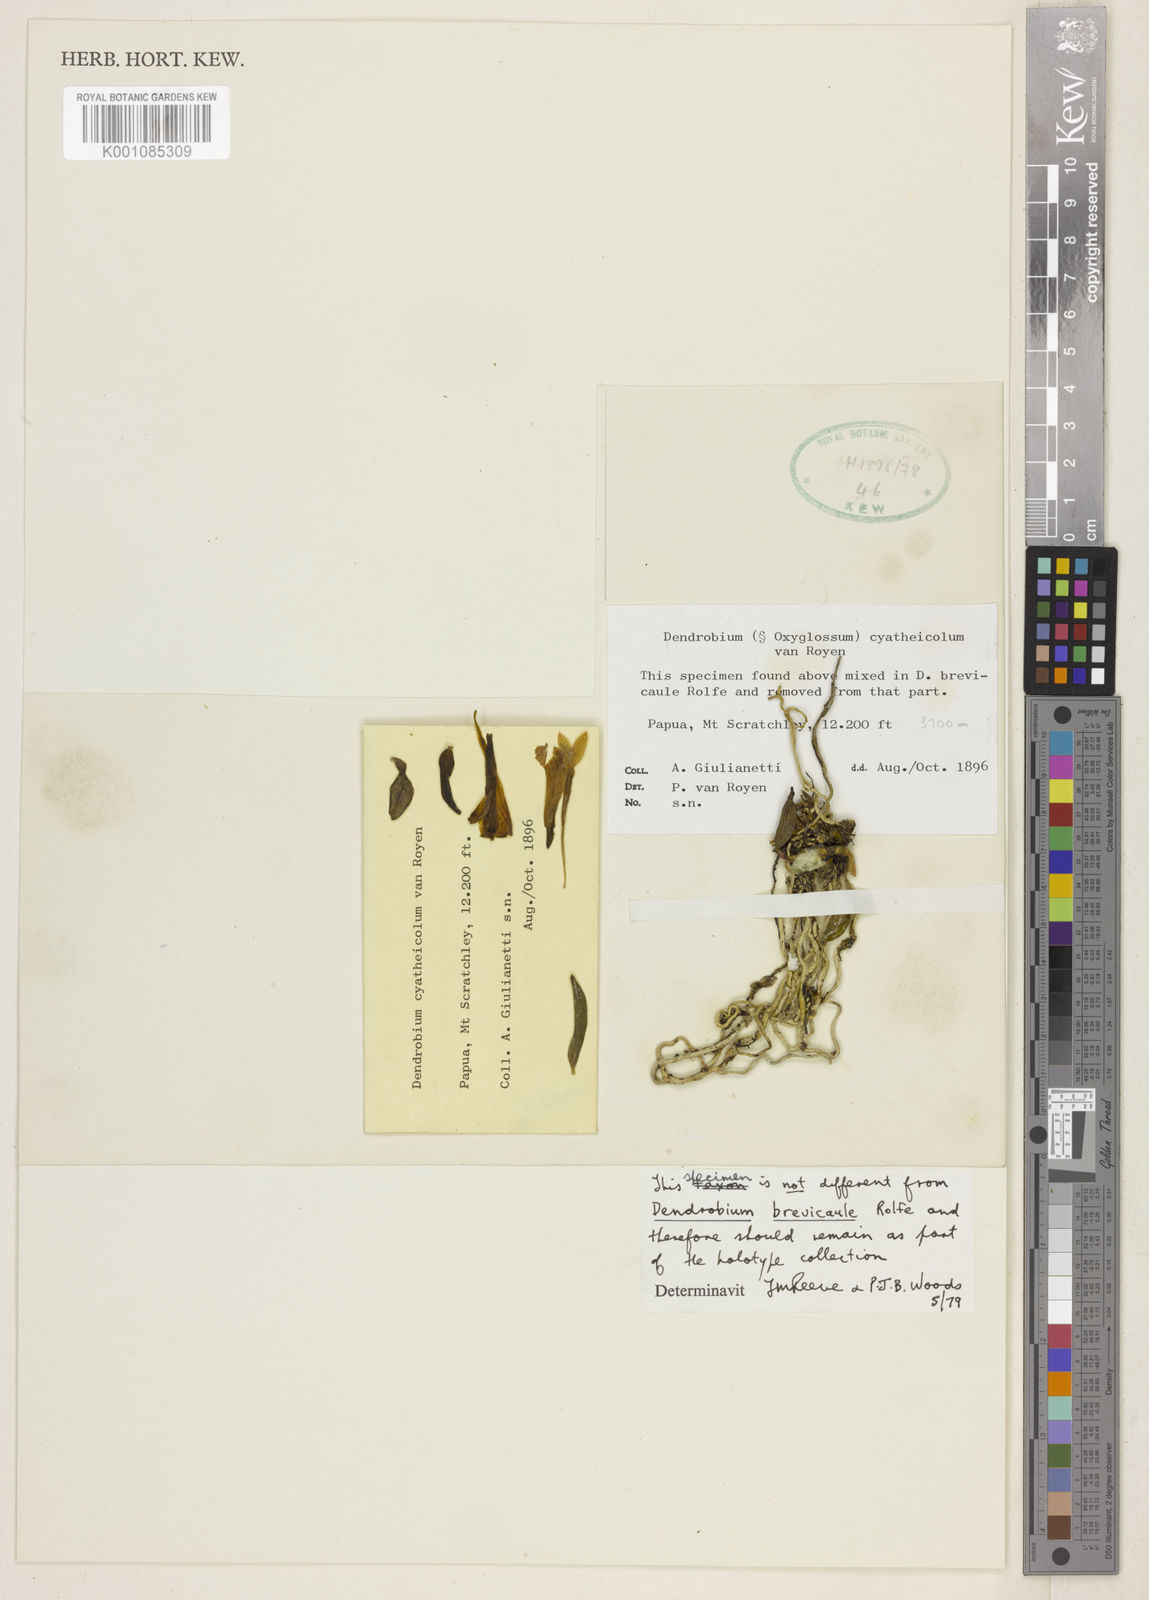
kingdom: Plantae
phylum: Tracheophyta
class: Liliopsida
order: Asparagales
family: Orchidaceae
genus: Dendrobium
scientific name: Dendrobium brevicaule
